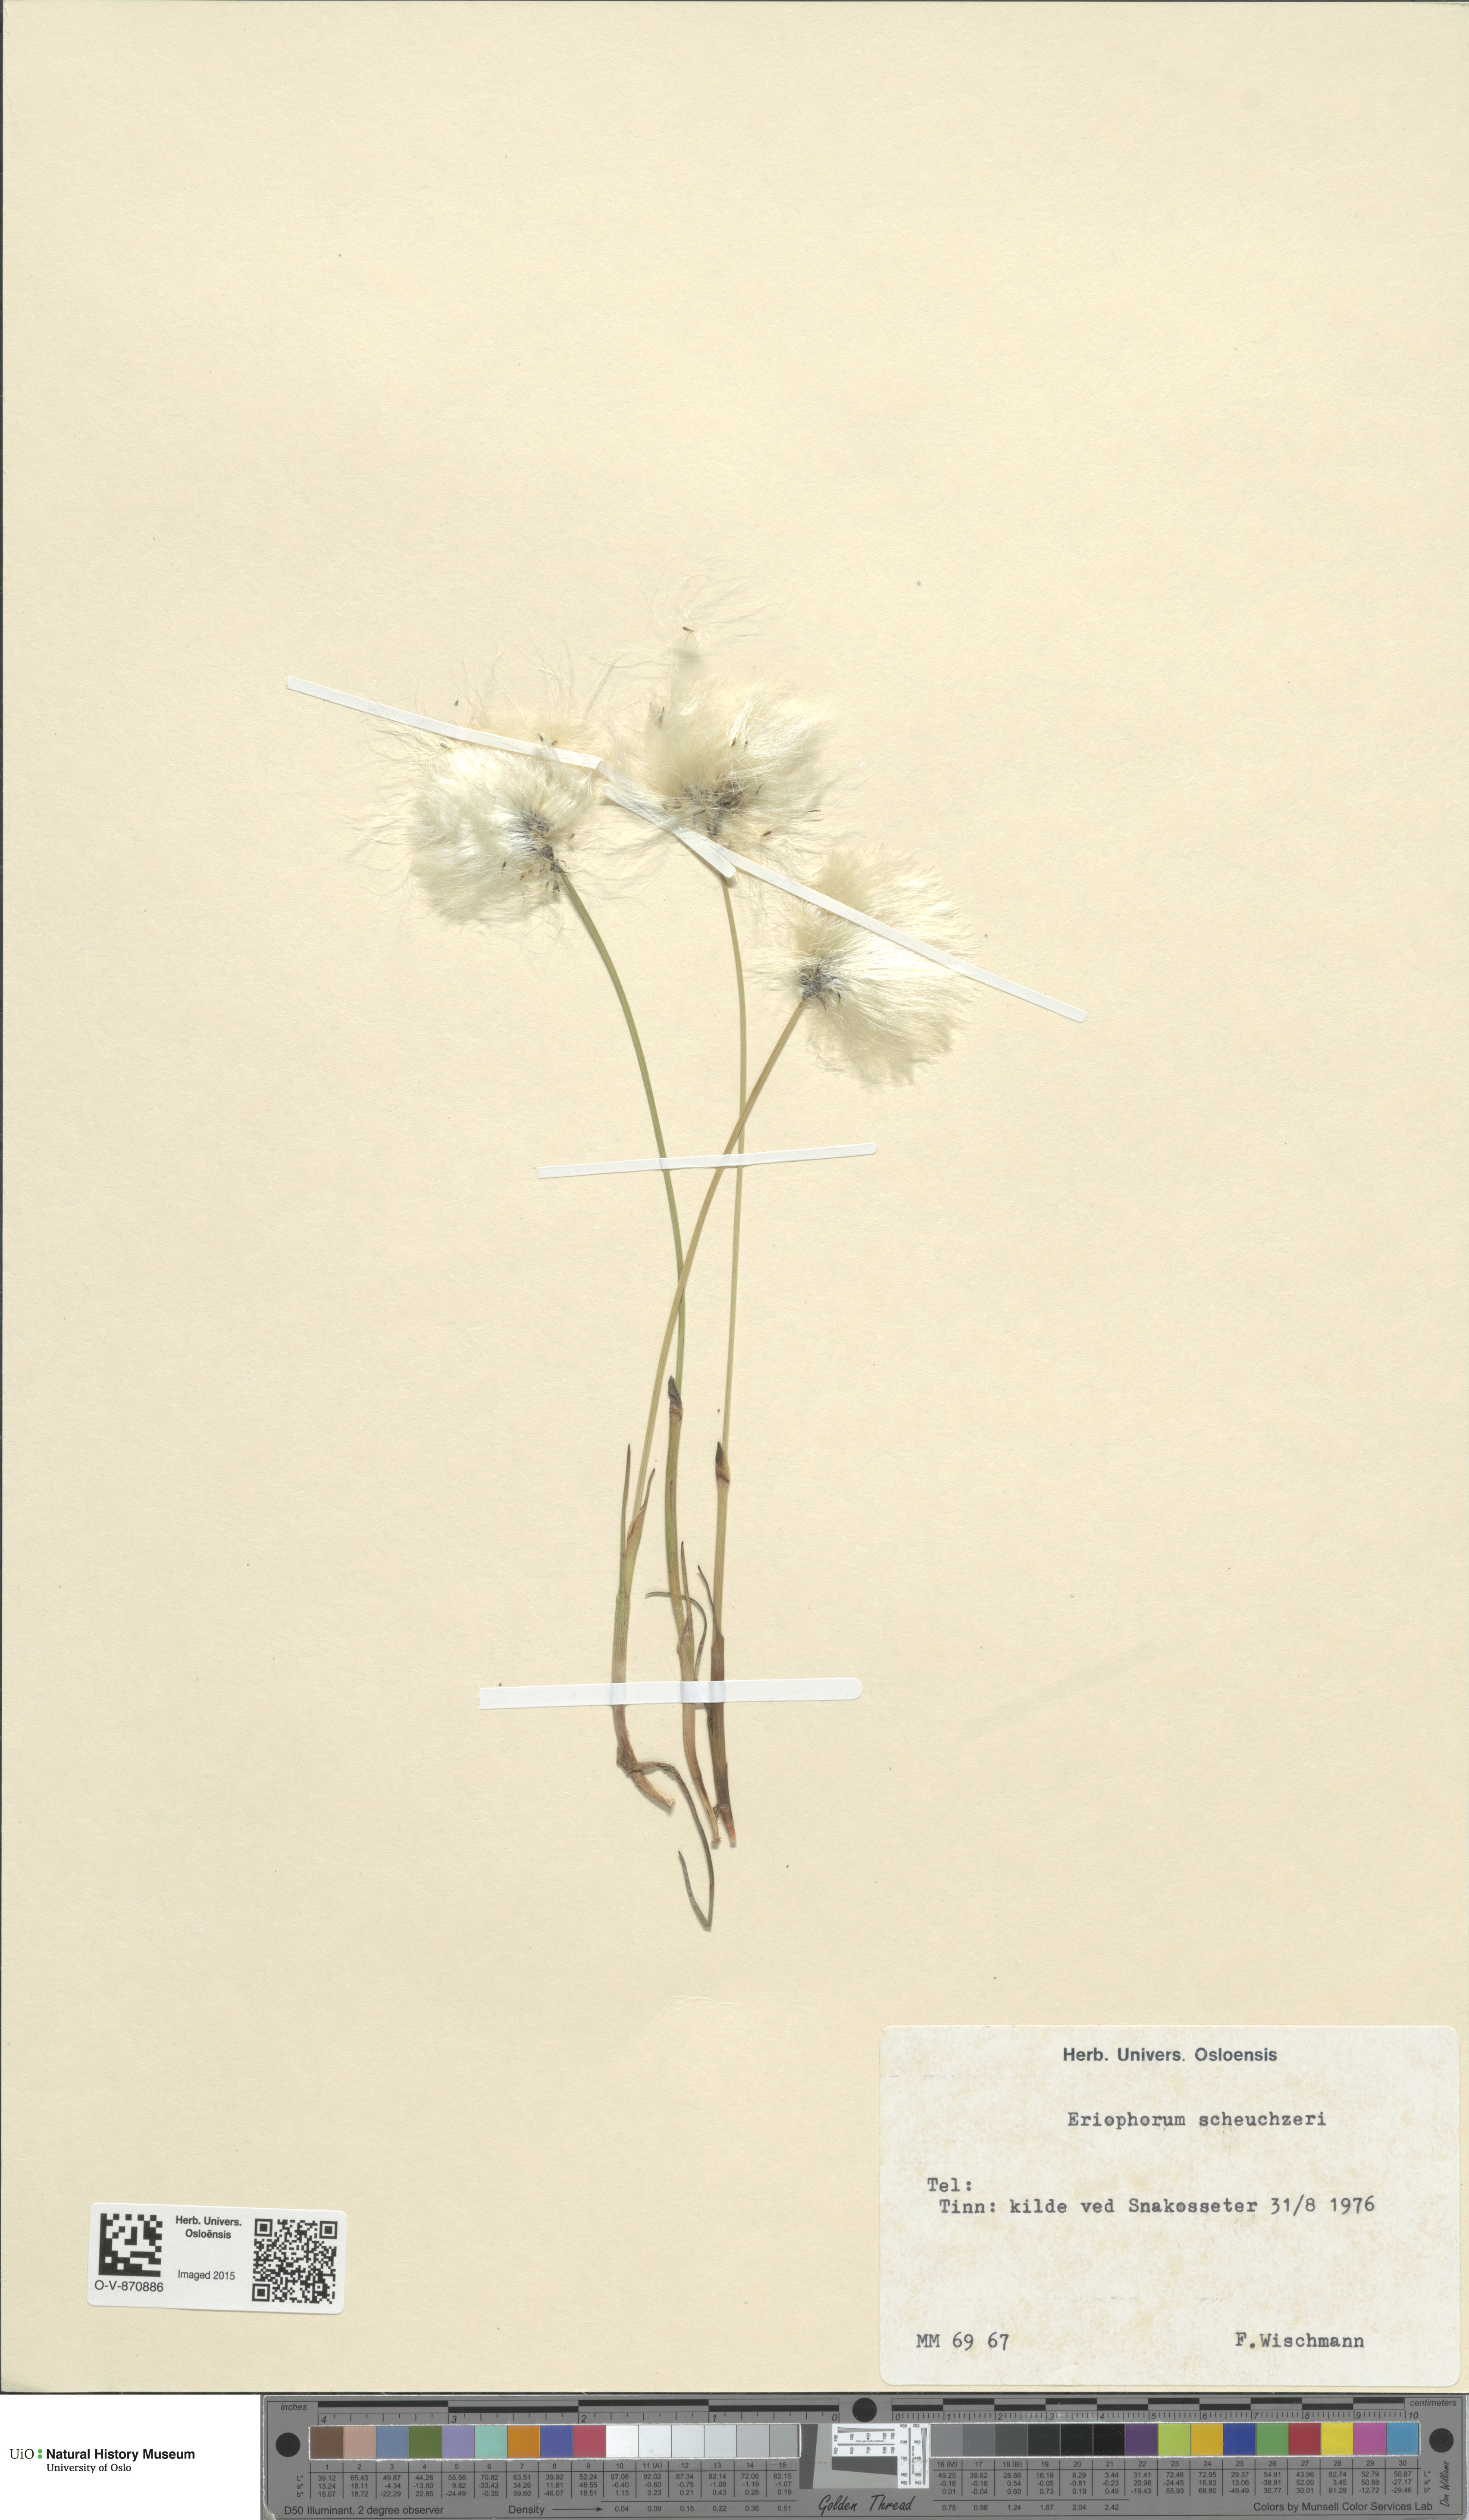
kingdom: Plantae
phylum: Tracheophyta
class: Liliopsida
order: Poales
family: Cyperaceae
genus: Eriophorum
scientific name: Eriophorum scheuchzeri
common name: Scheuchzer's cottongrass
